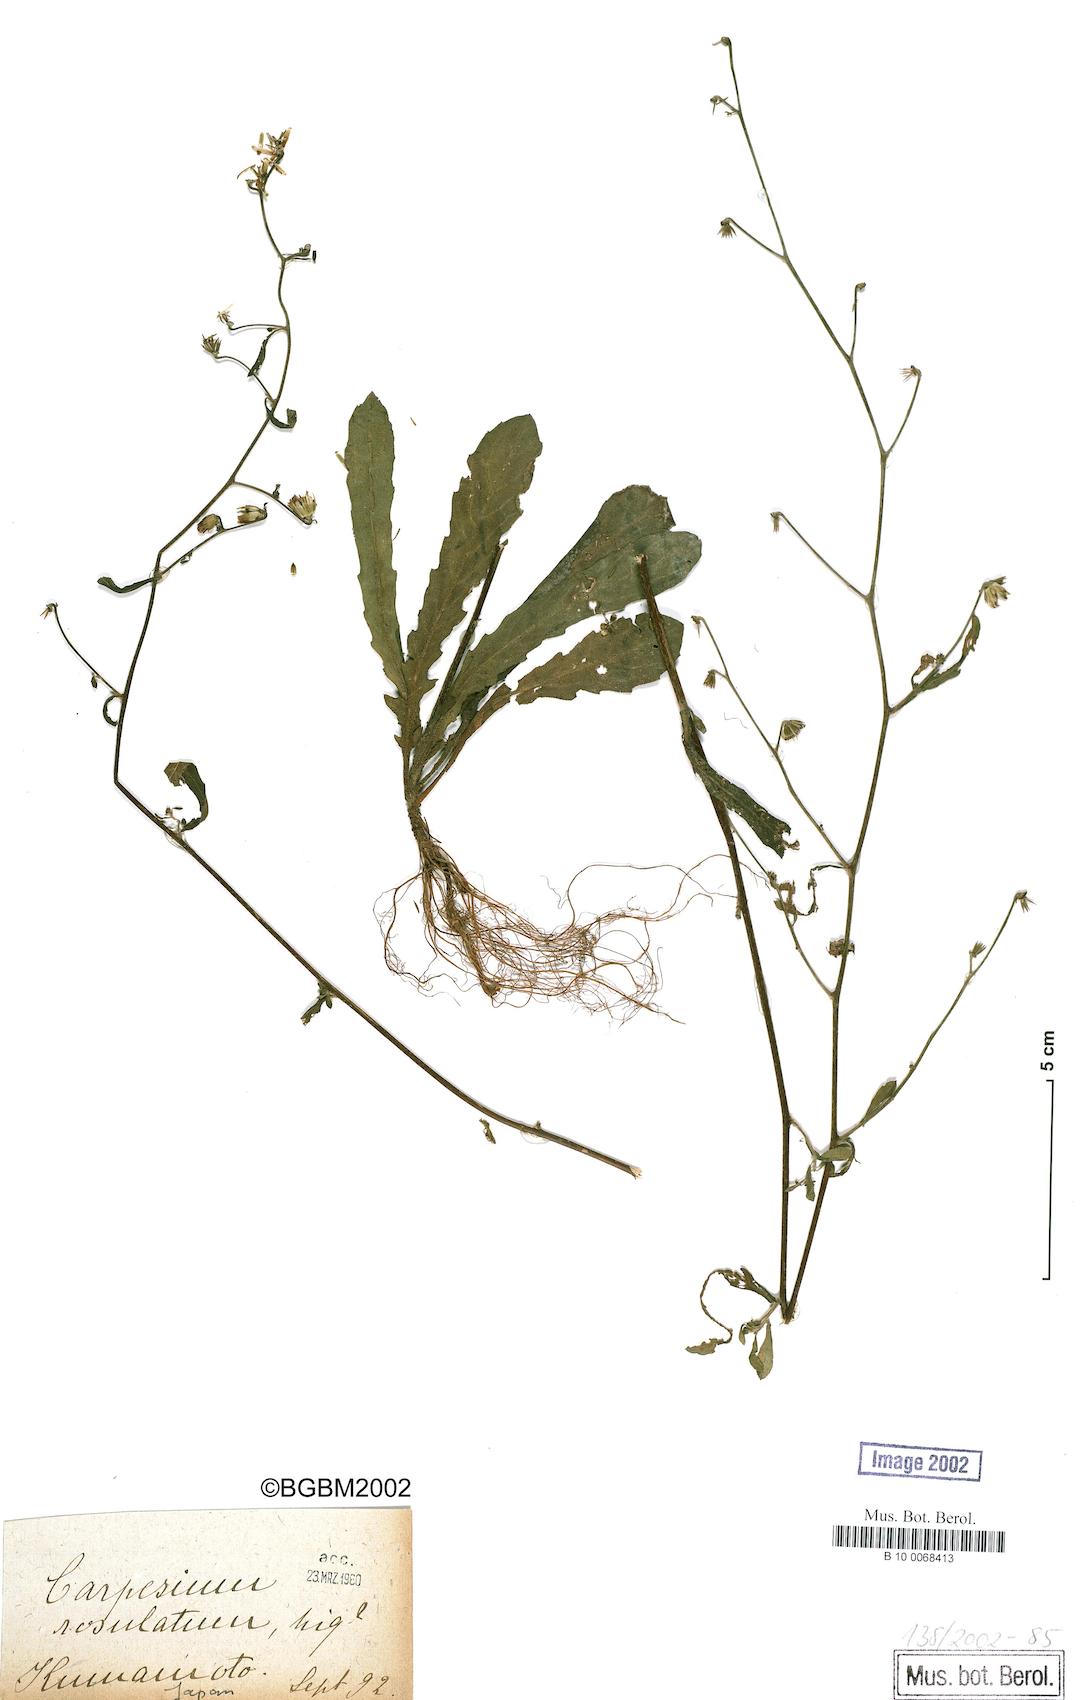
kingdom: Plantae
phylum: Tracheophyta
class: Magnoliopsida
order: Asterales
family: Asteraceae
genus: Carpesium
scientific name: Carpesium rosulatum
